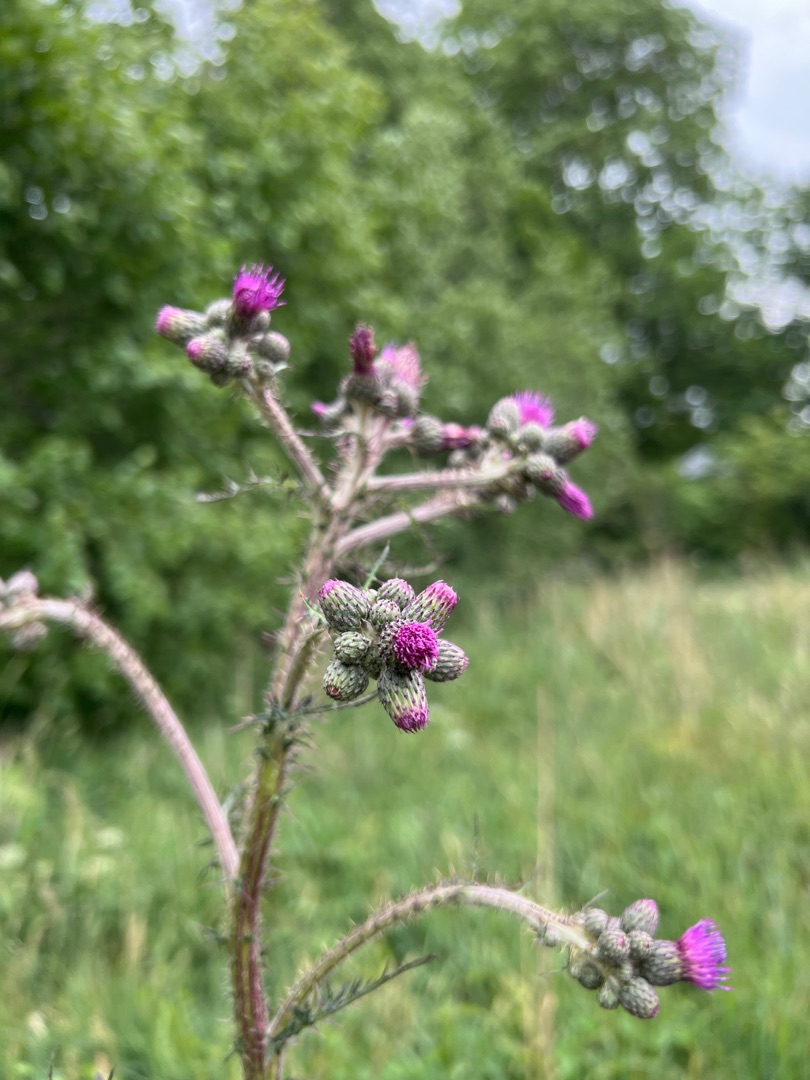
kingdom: Plantae
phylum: Tracheophyta
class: Magnoliopsida
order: Asterales
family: Asteraceae
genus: Cirsium
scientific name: Cirsium palustre
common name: Kær-tidsel
